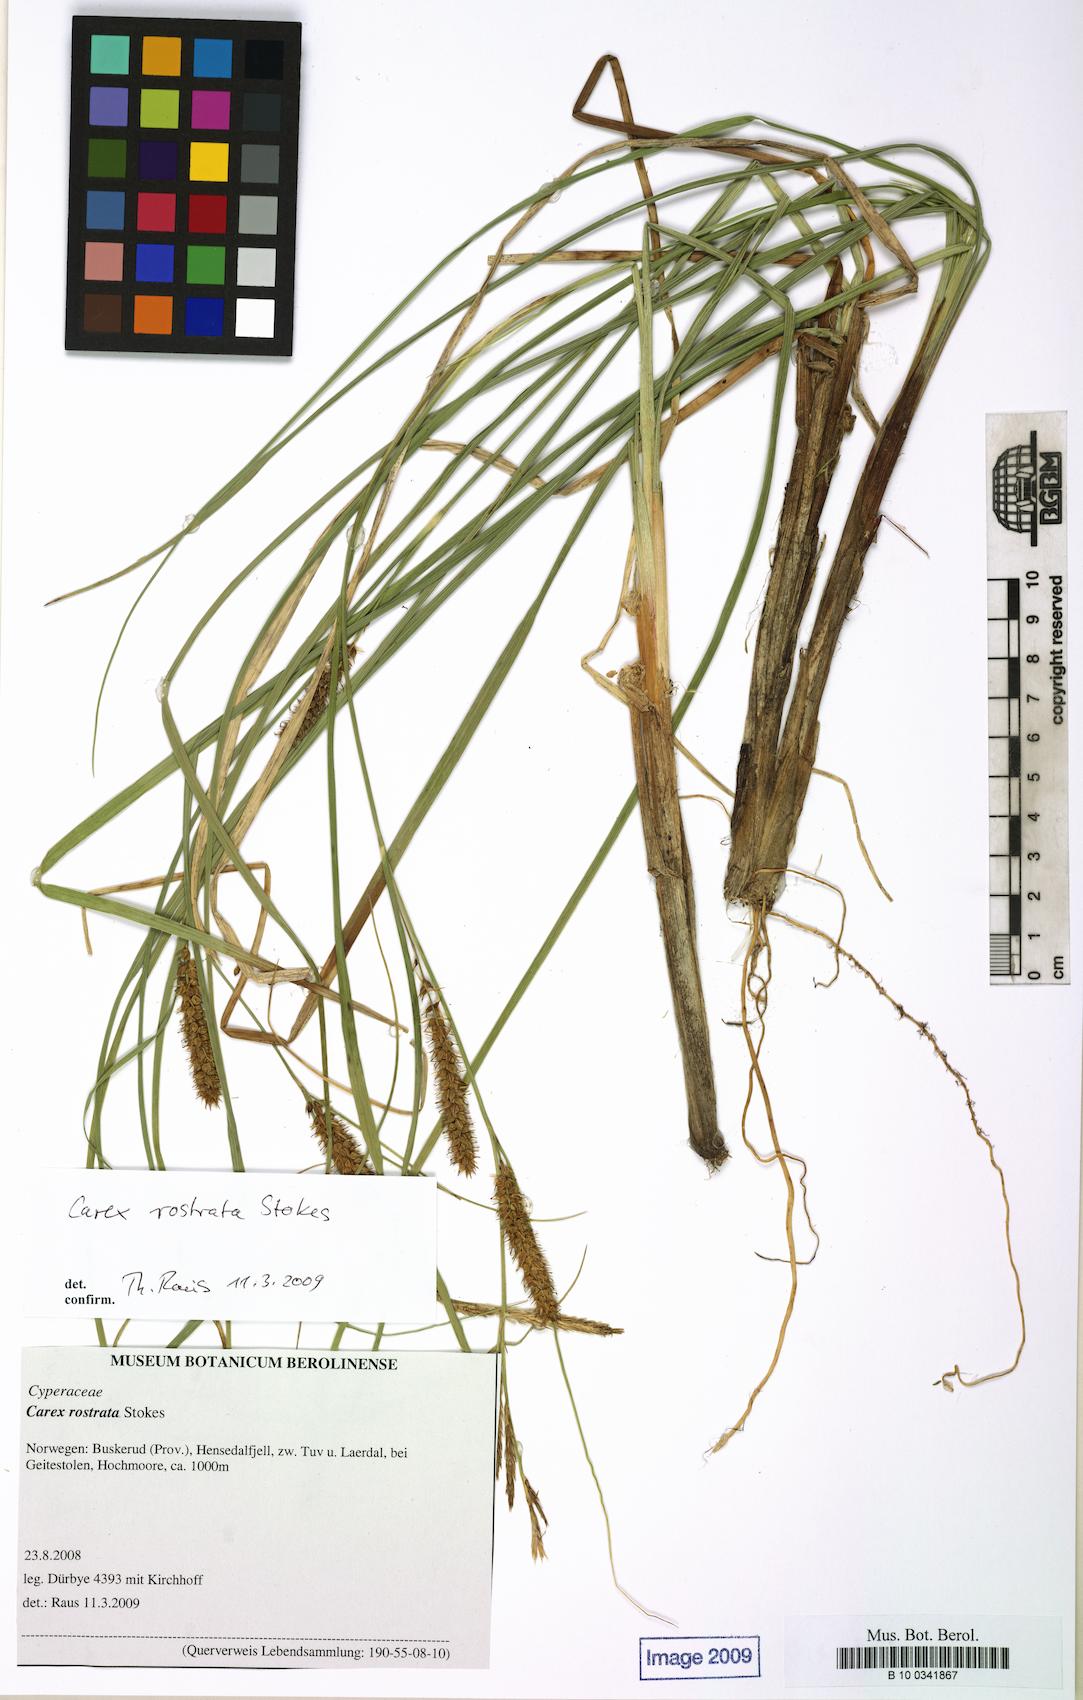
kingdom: Plantae
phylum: Tracheophyta
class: Liliopsida
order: Poales
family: Cyperaceae
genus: Carex
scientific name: Carex rostrata
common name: Bottle sedge
